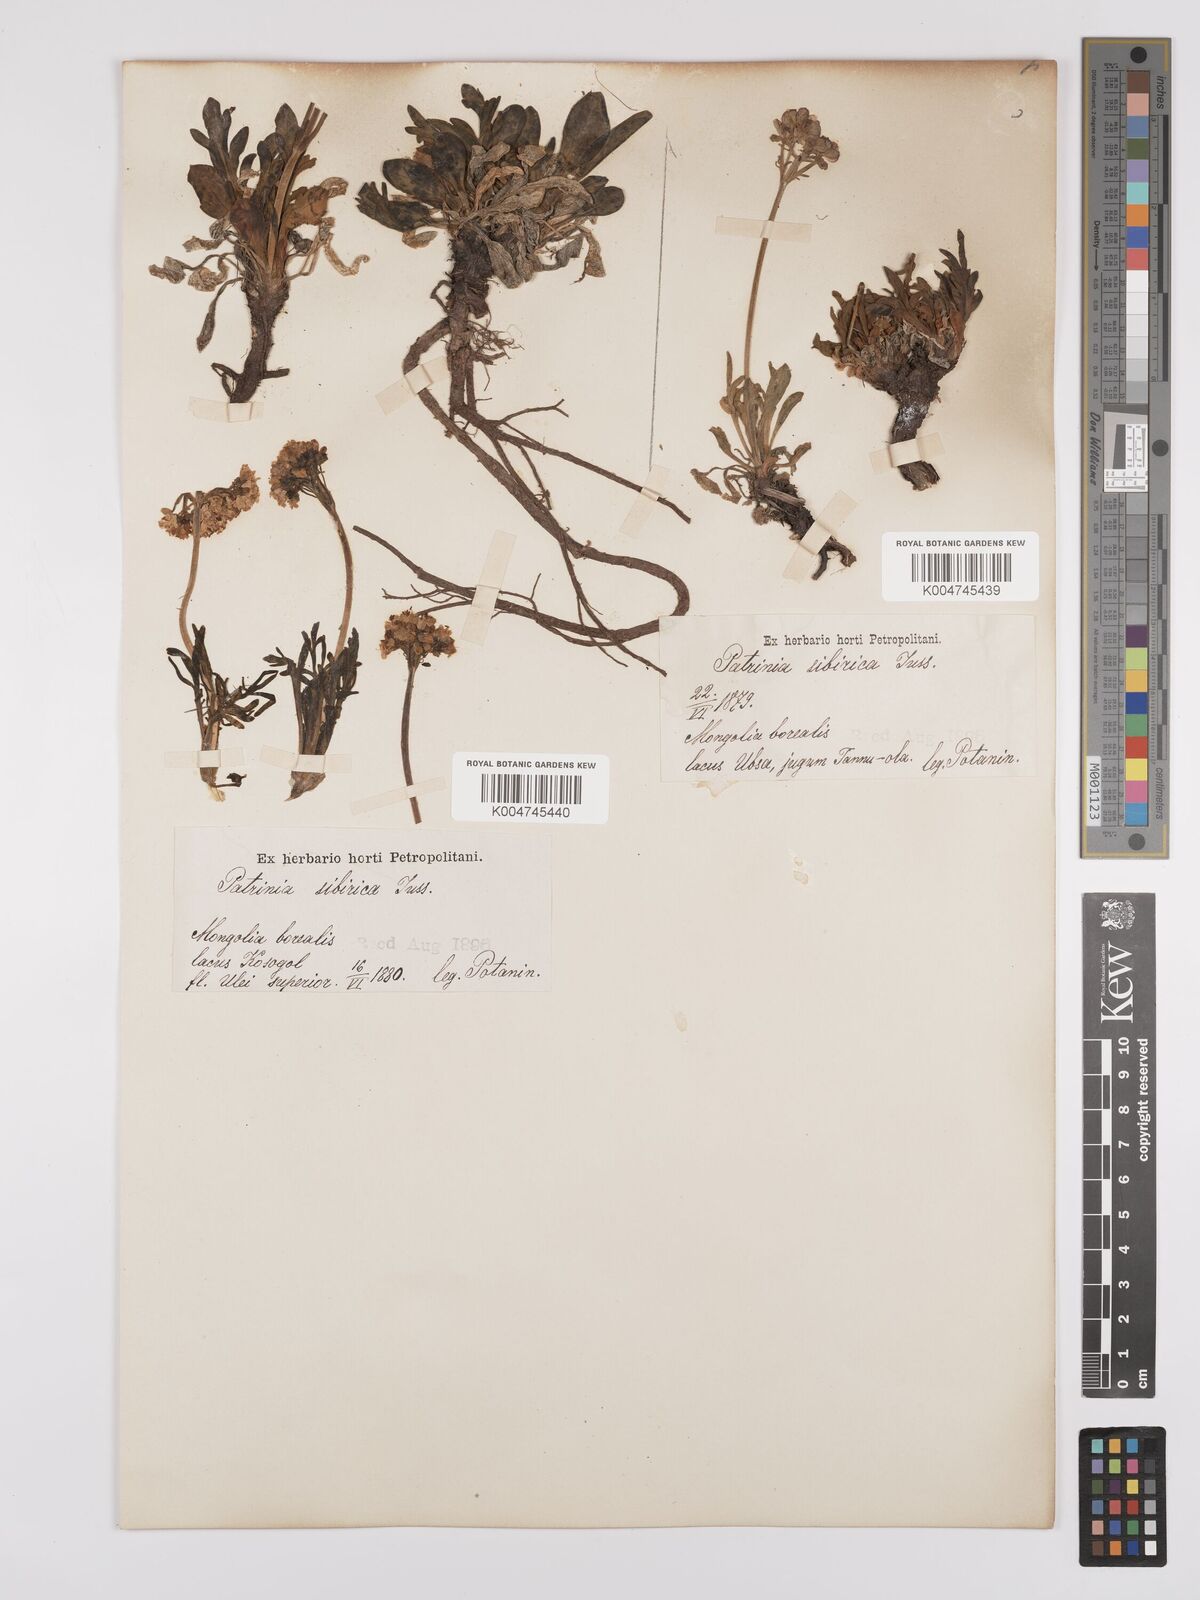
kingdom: Plantae
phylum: Tracheophyta
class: Magnoliopsida
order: Dipsacales
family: Caprifoliaceae
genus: Patrinia
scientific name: Patrinia sibirica
